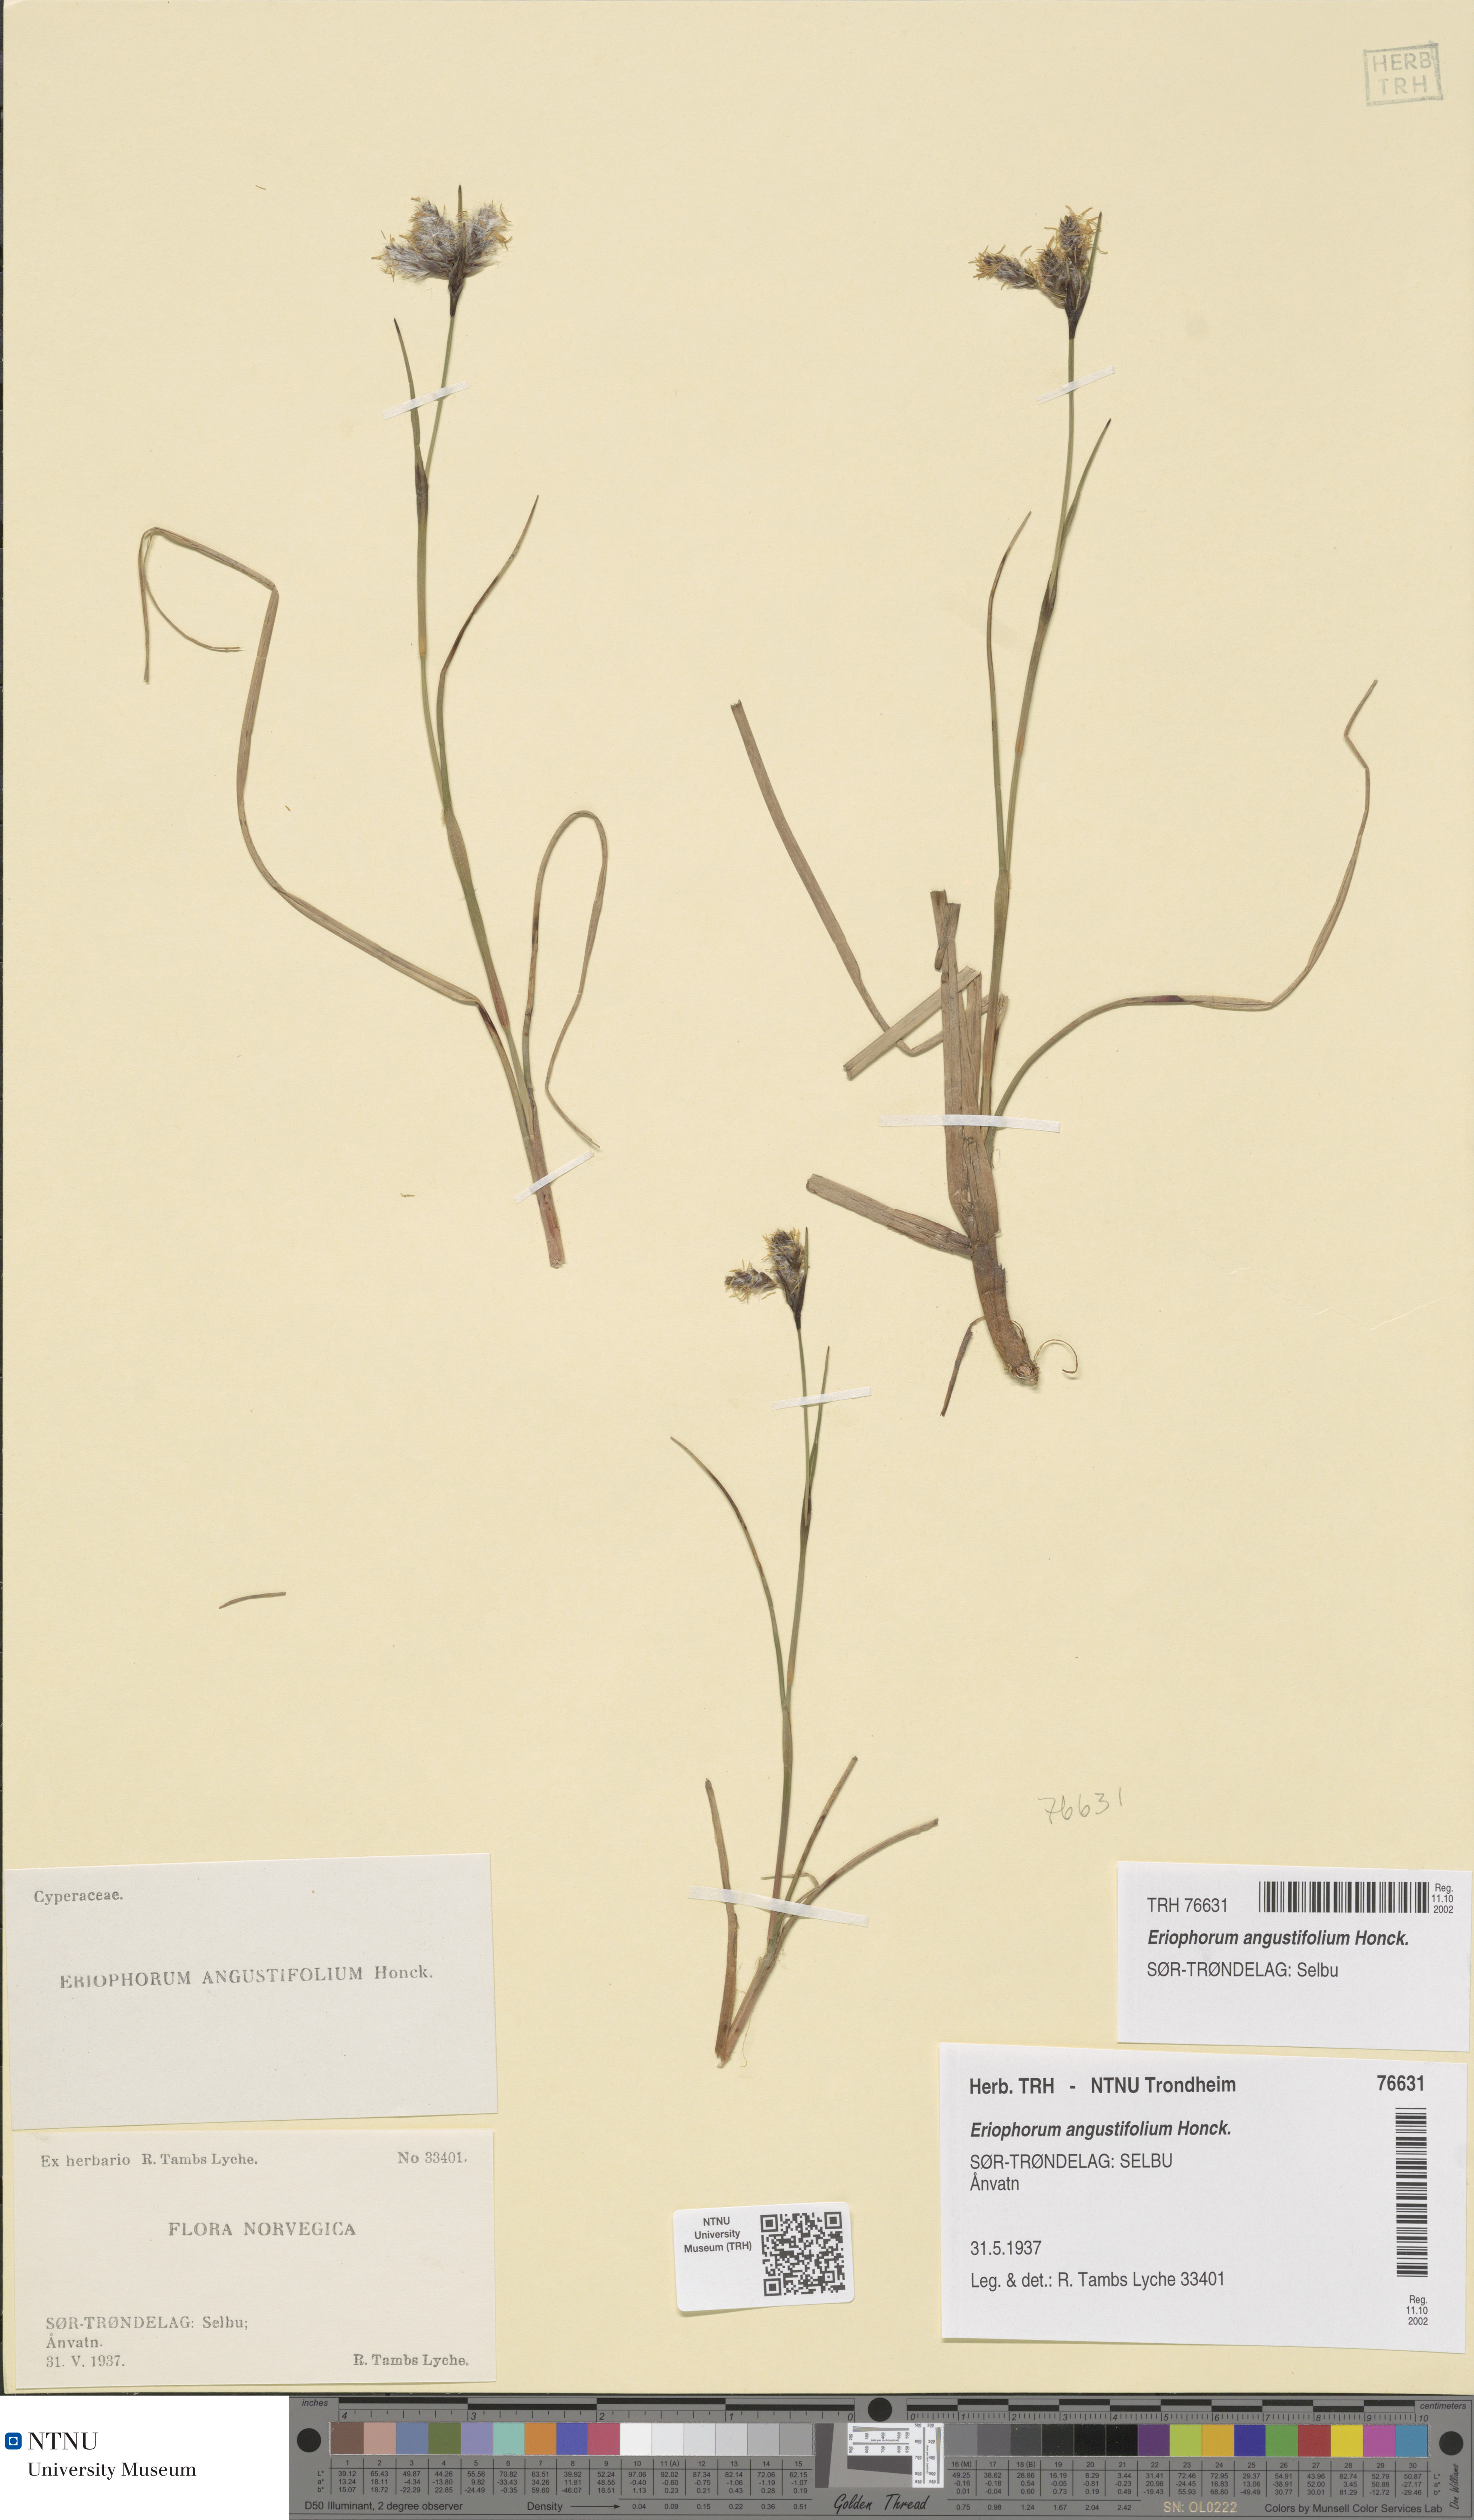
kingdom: Plantae
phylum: Tracheophyta
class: Liliopsida
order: Poales
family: Cyperaceae
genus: Eriophorum
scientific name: Eriophorum angustifolium
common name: Common cottongrass
